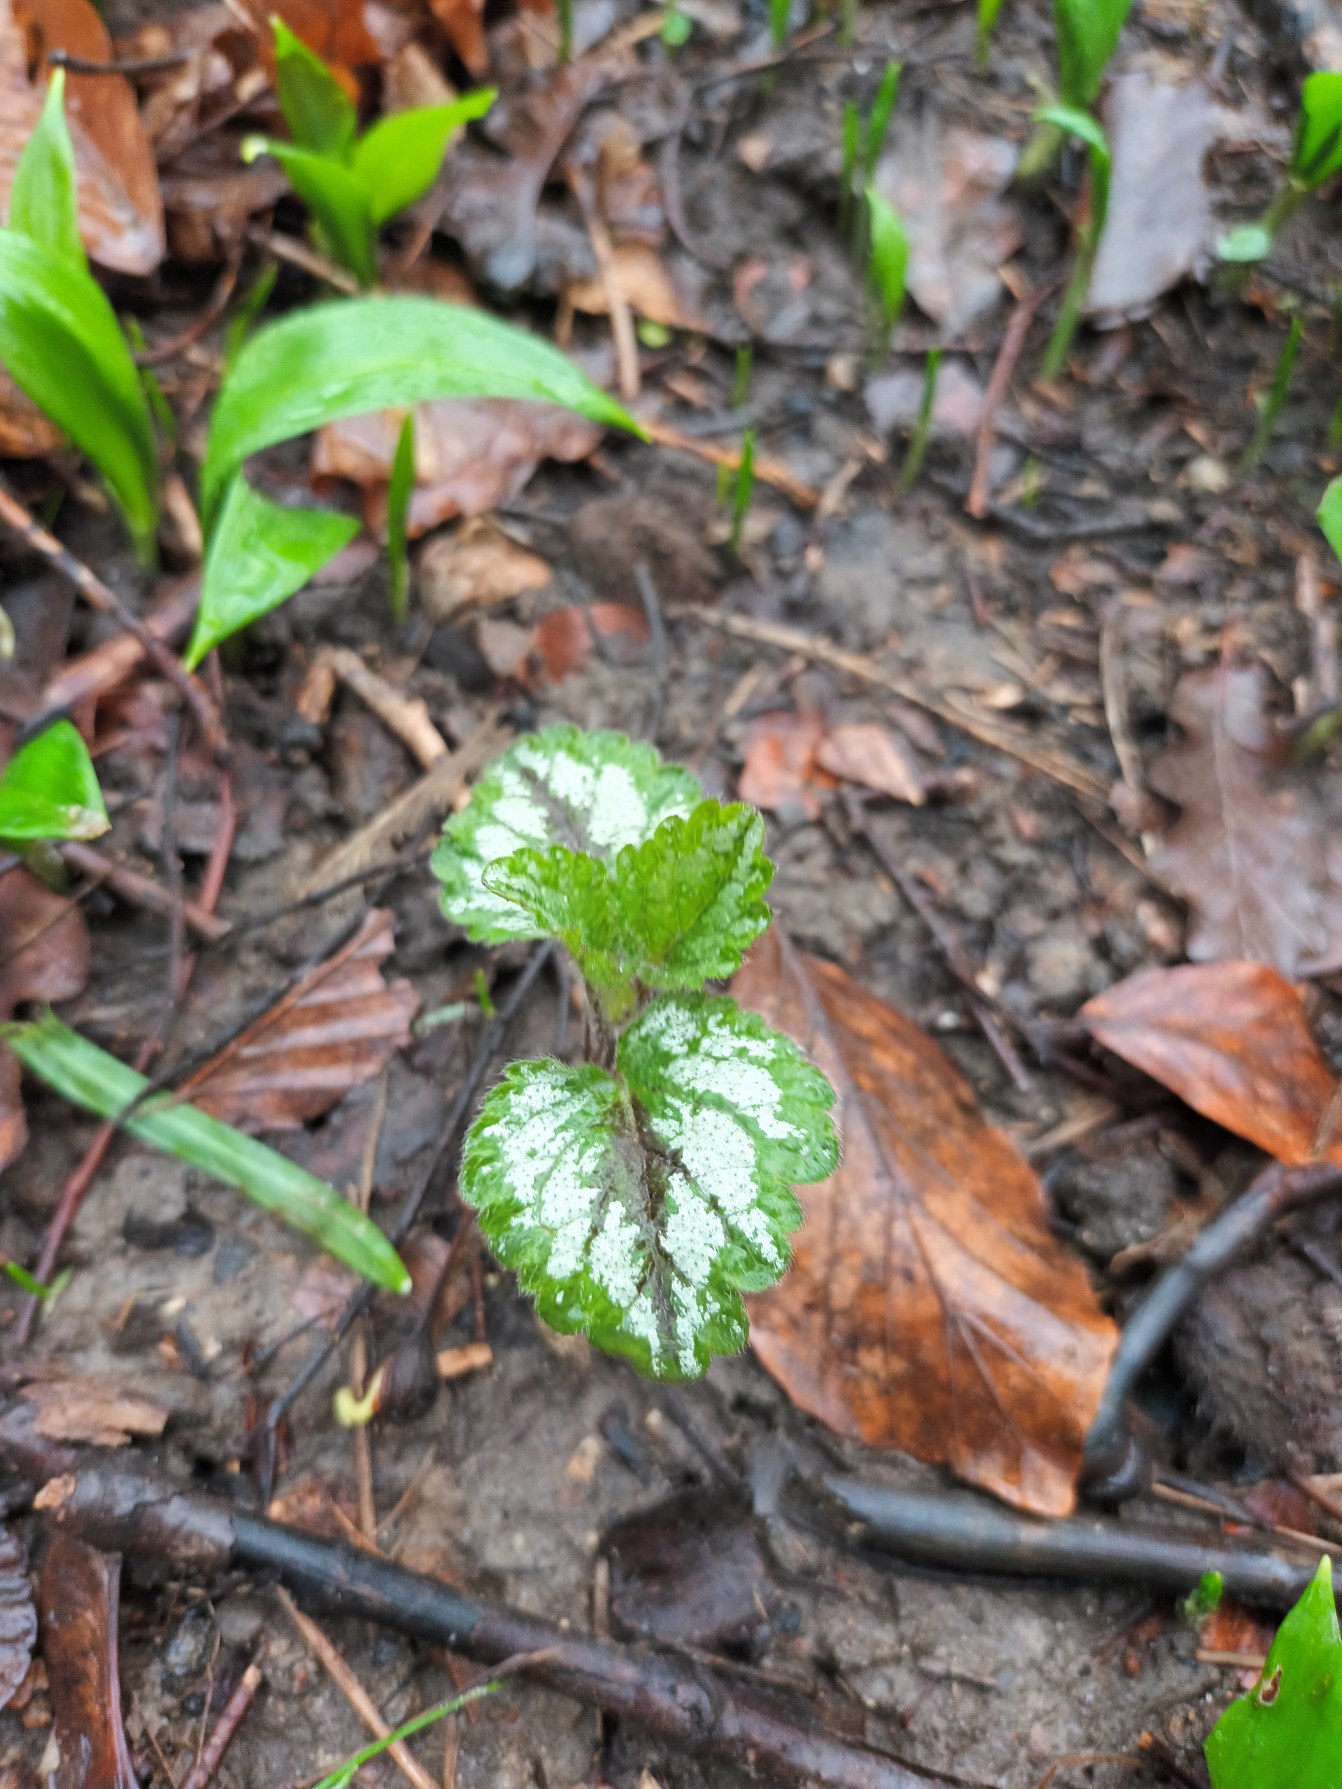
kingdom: Plantae
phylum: Tracheophyta
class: Magnoliopsida
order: Lamiales
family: Lamiaceae
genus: Lamium
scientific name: Lamium galeobdolon
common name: Have-guldnælde
